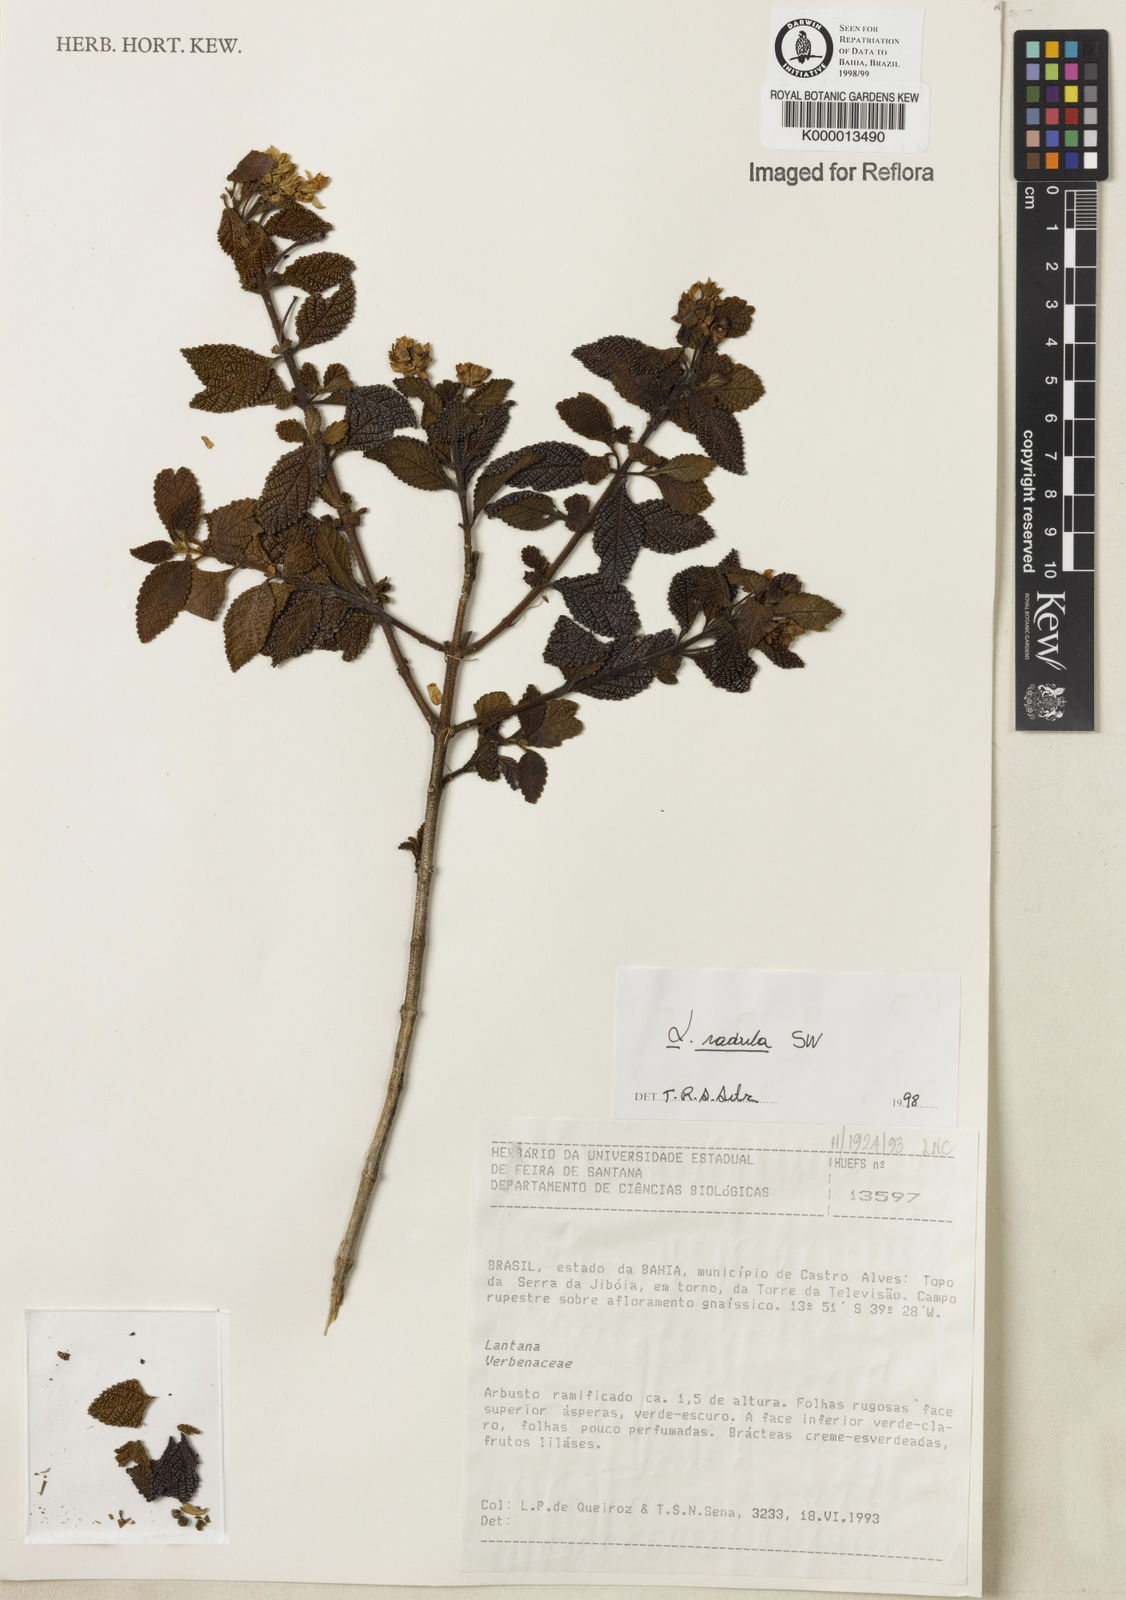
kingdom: Plantae
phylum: Tracheophyta
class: Magnoliopsida
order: Lamiales
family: Verbenaceae
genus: Lantana
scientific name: Lantana radula
